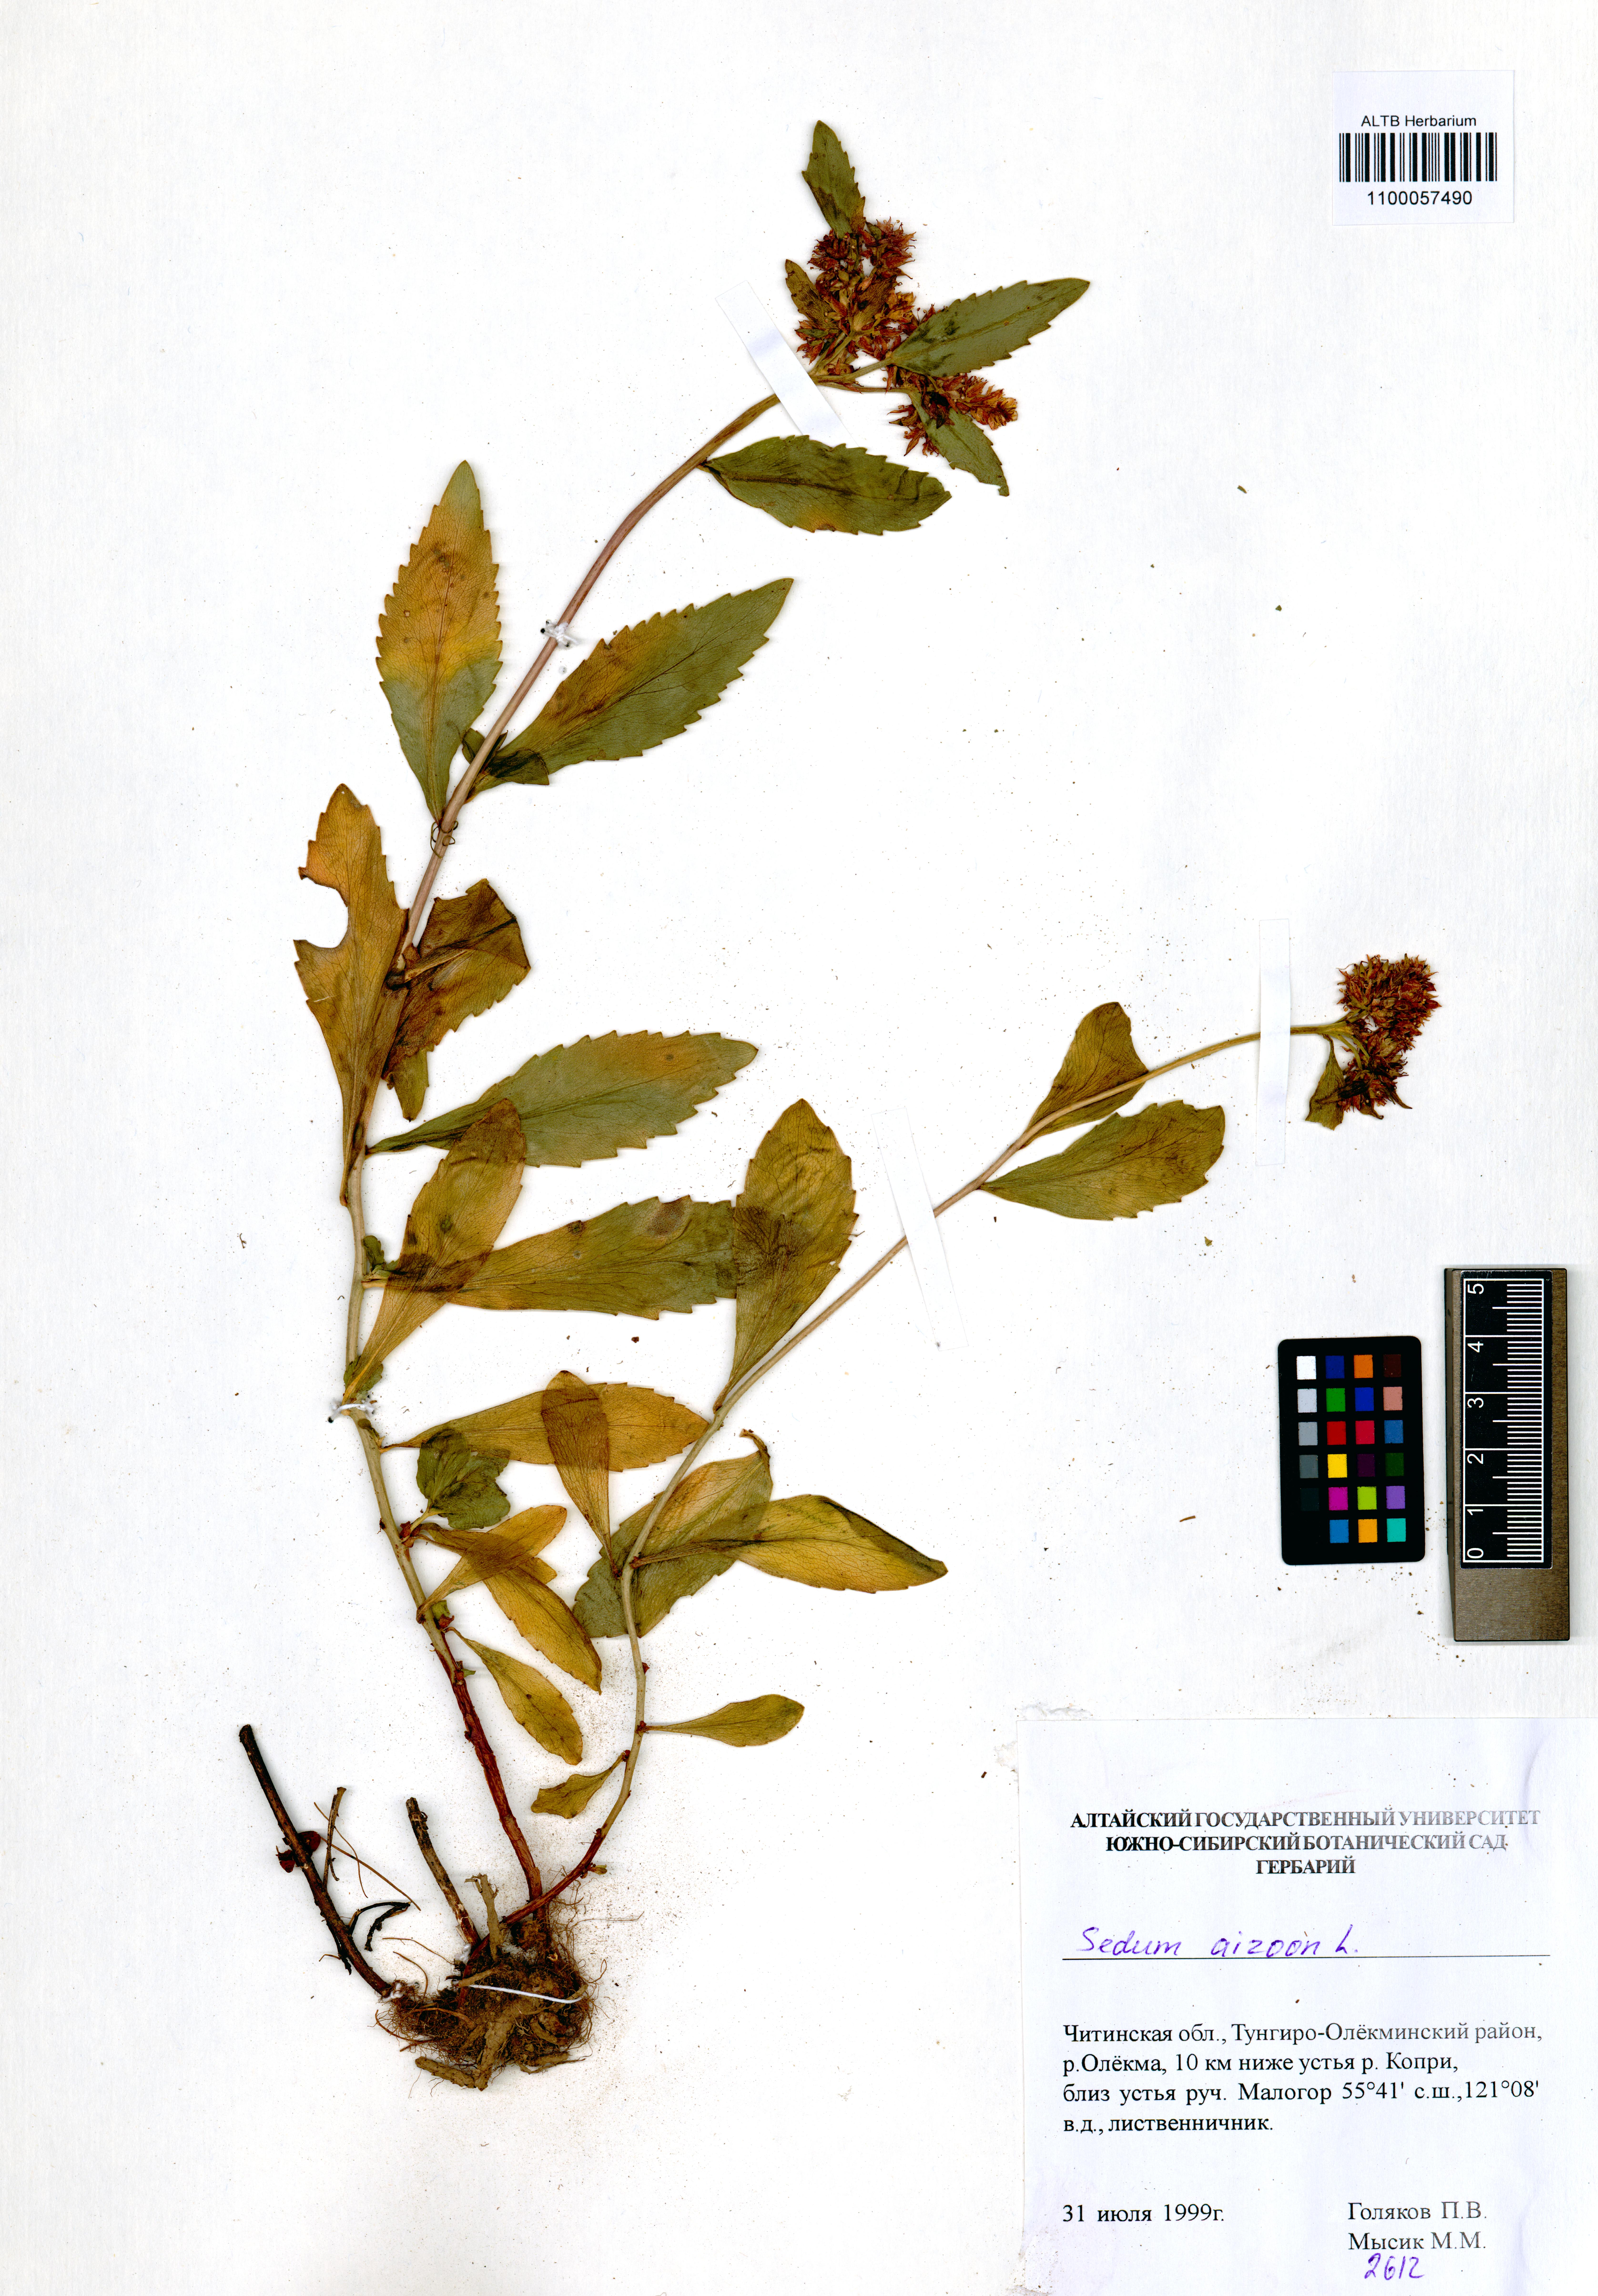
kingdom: Plantae
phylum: Tracheophyta
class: Magnoliopsida
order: Saxifragales
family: Crassulaceae
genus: Phedimus
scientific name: Phedimus aizoon
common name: Orpin aizoon
